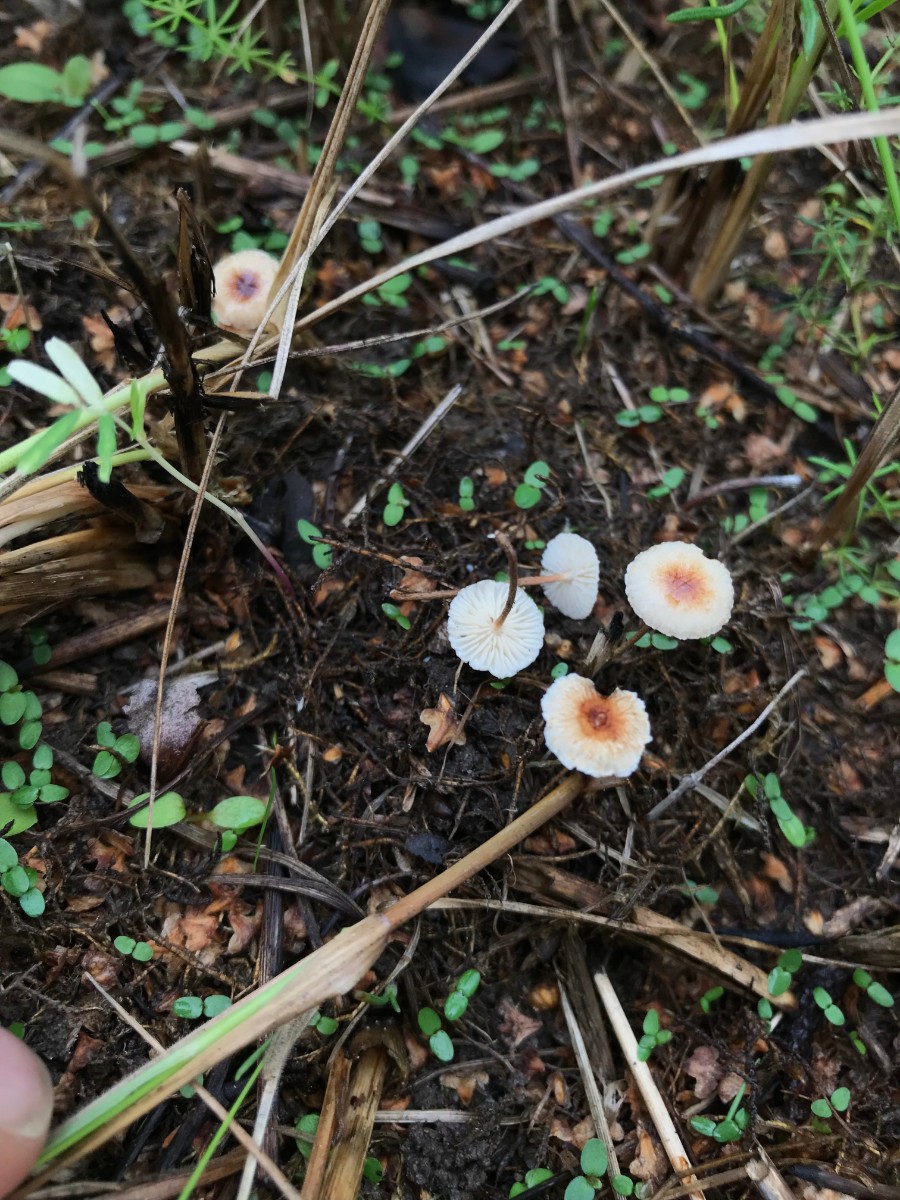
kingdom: Fungi
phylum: Basidiomycota
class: Agaricomycetes
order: Agaricales
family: Marasmiaceae
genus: Crinipellis
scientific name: Crinipellis scabella
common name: børstefod
